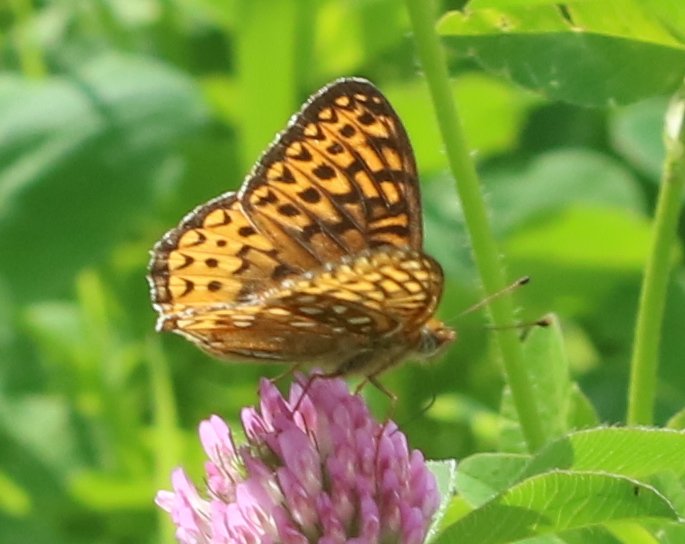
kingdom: Animalia
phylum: Arthropoda
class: Insecta
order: Lepidoptera
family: Nymphalidae
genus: Speyeria
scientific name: Speyeria atlantis
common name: Atlantis Fritillary
